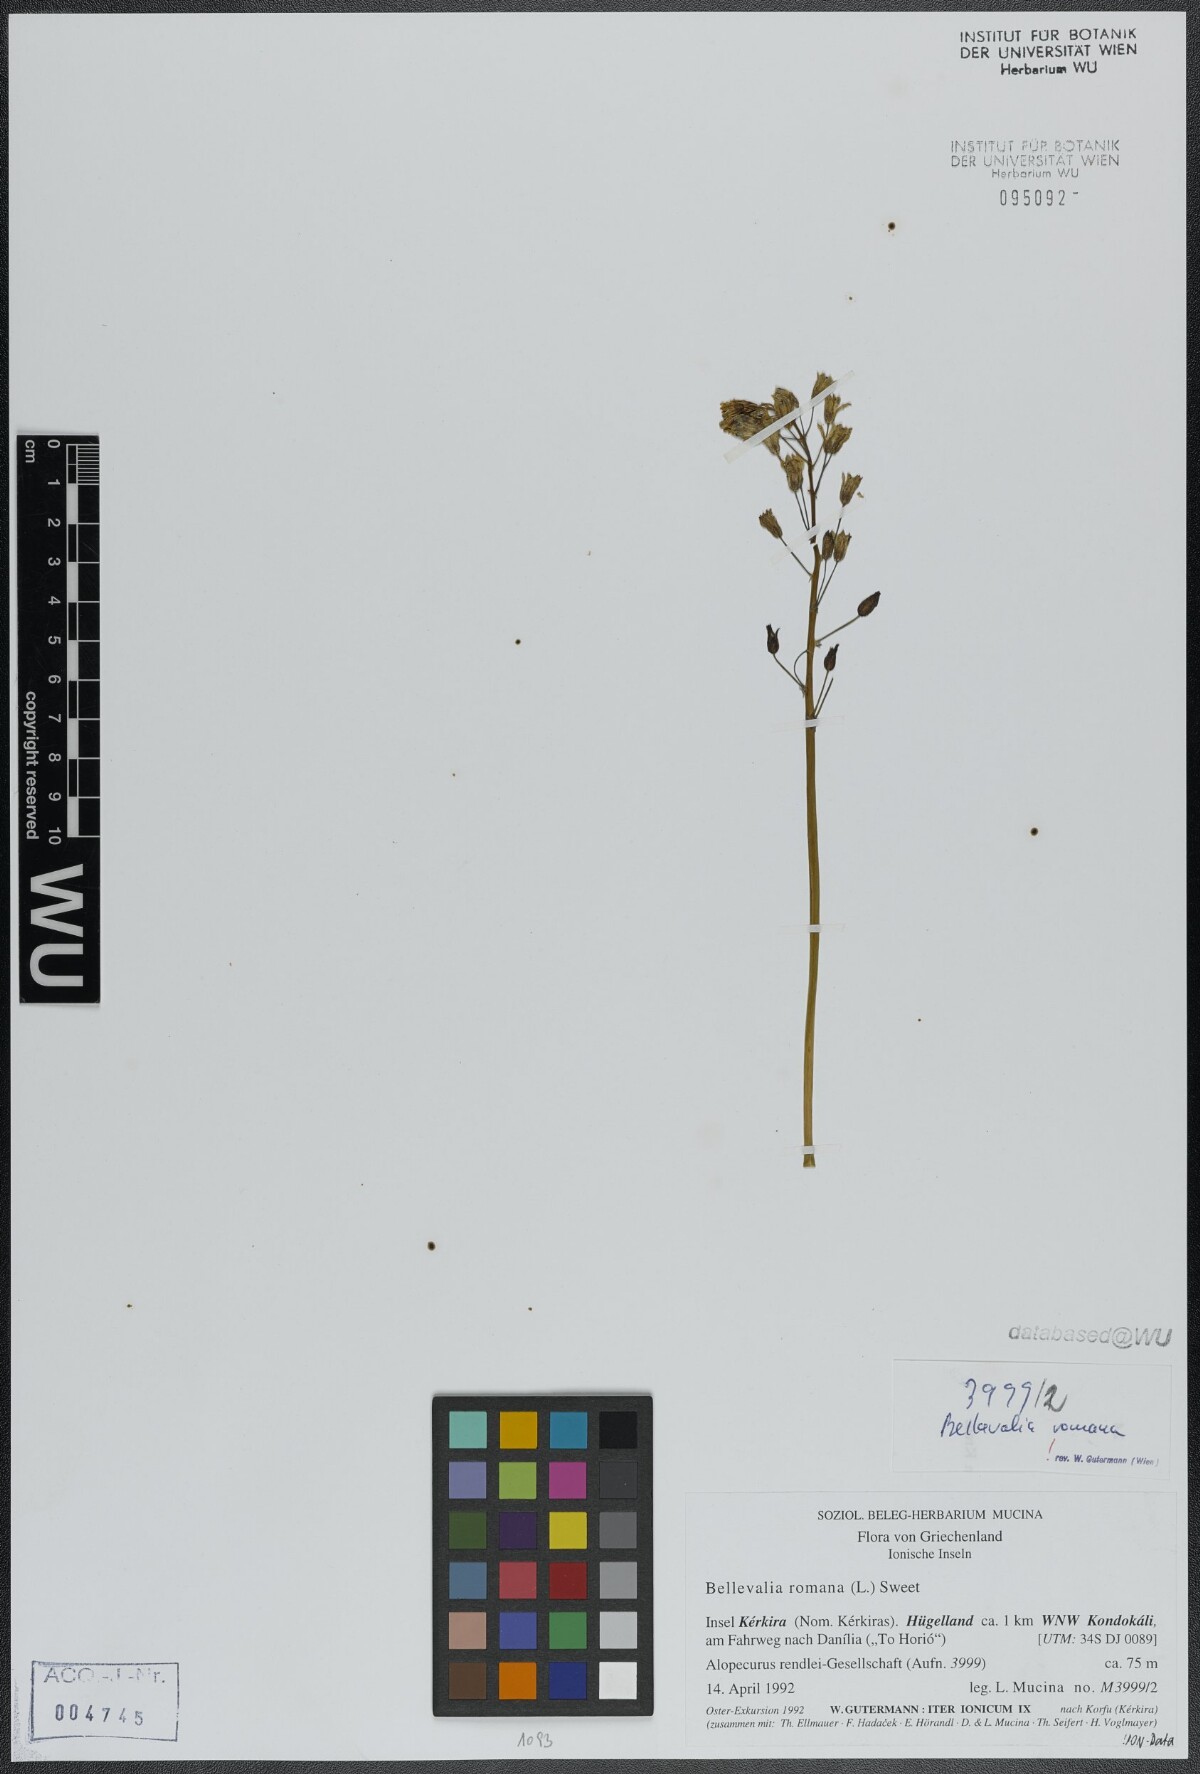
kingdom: Plantae
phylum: Tracheophyta
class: Liliopsida
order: Asparagales
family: Asparagaceae
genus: Bellevalia
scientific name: Bellevalia romana
